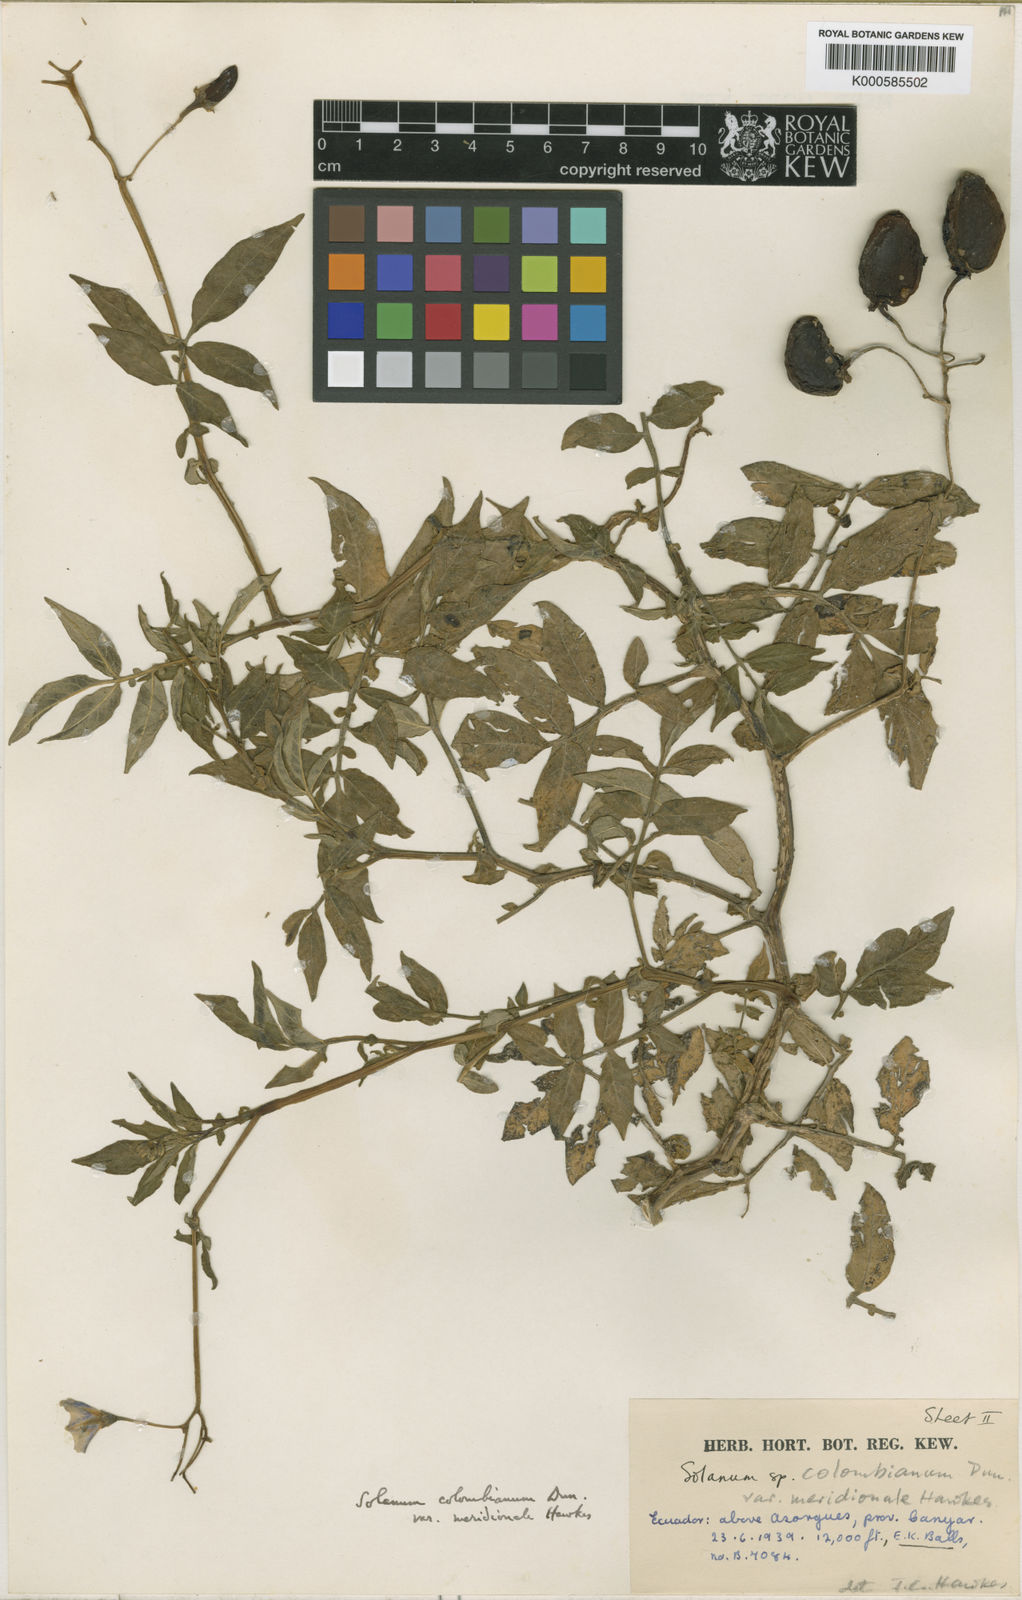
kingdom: Plantae
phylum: Tracheophyta
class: Magnoliopsida
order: Solanales
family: Solanaceae
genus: Solanum
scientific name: Solanum colombianum
